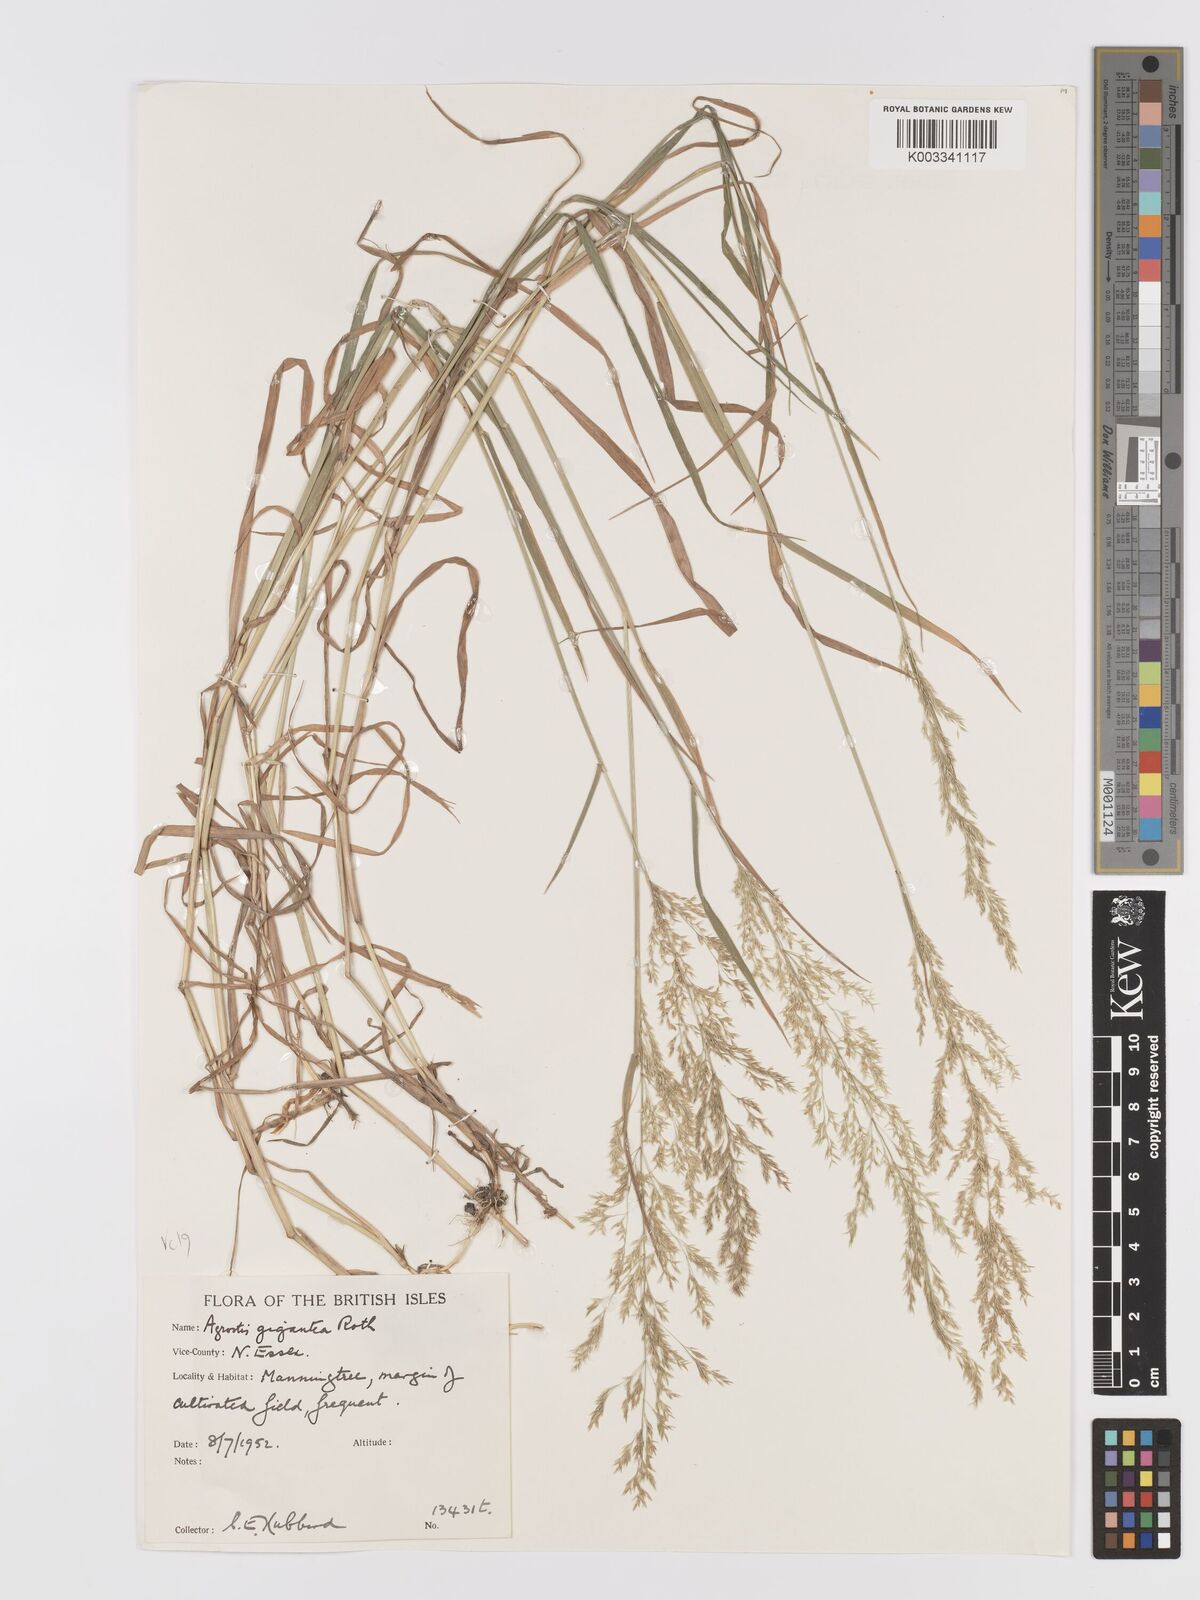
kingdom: Plantae
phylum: Tracheophyta
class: Liliopsida
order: Poales
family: Poaceae
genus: Agrostis
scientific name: Agrostis gigantea
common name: Black bent
